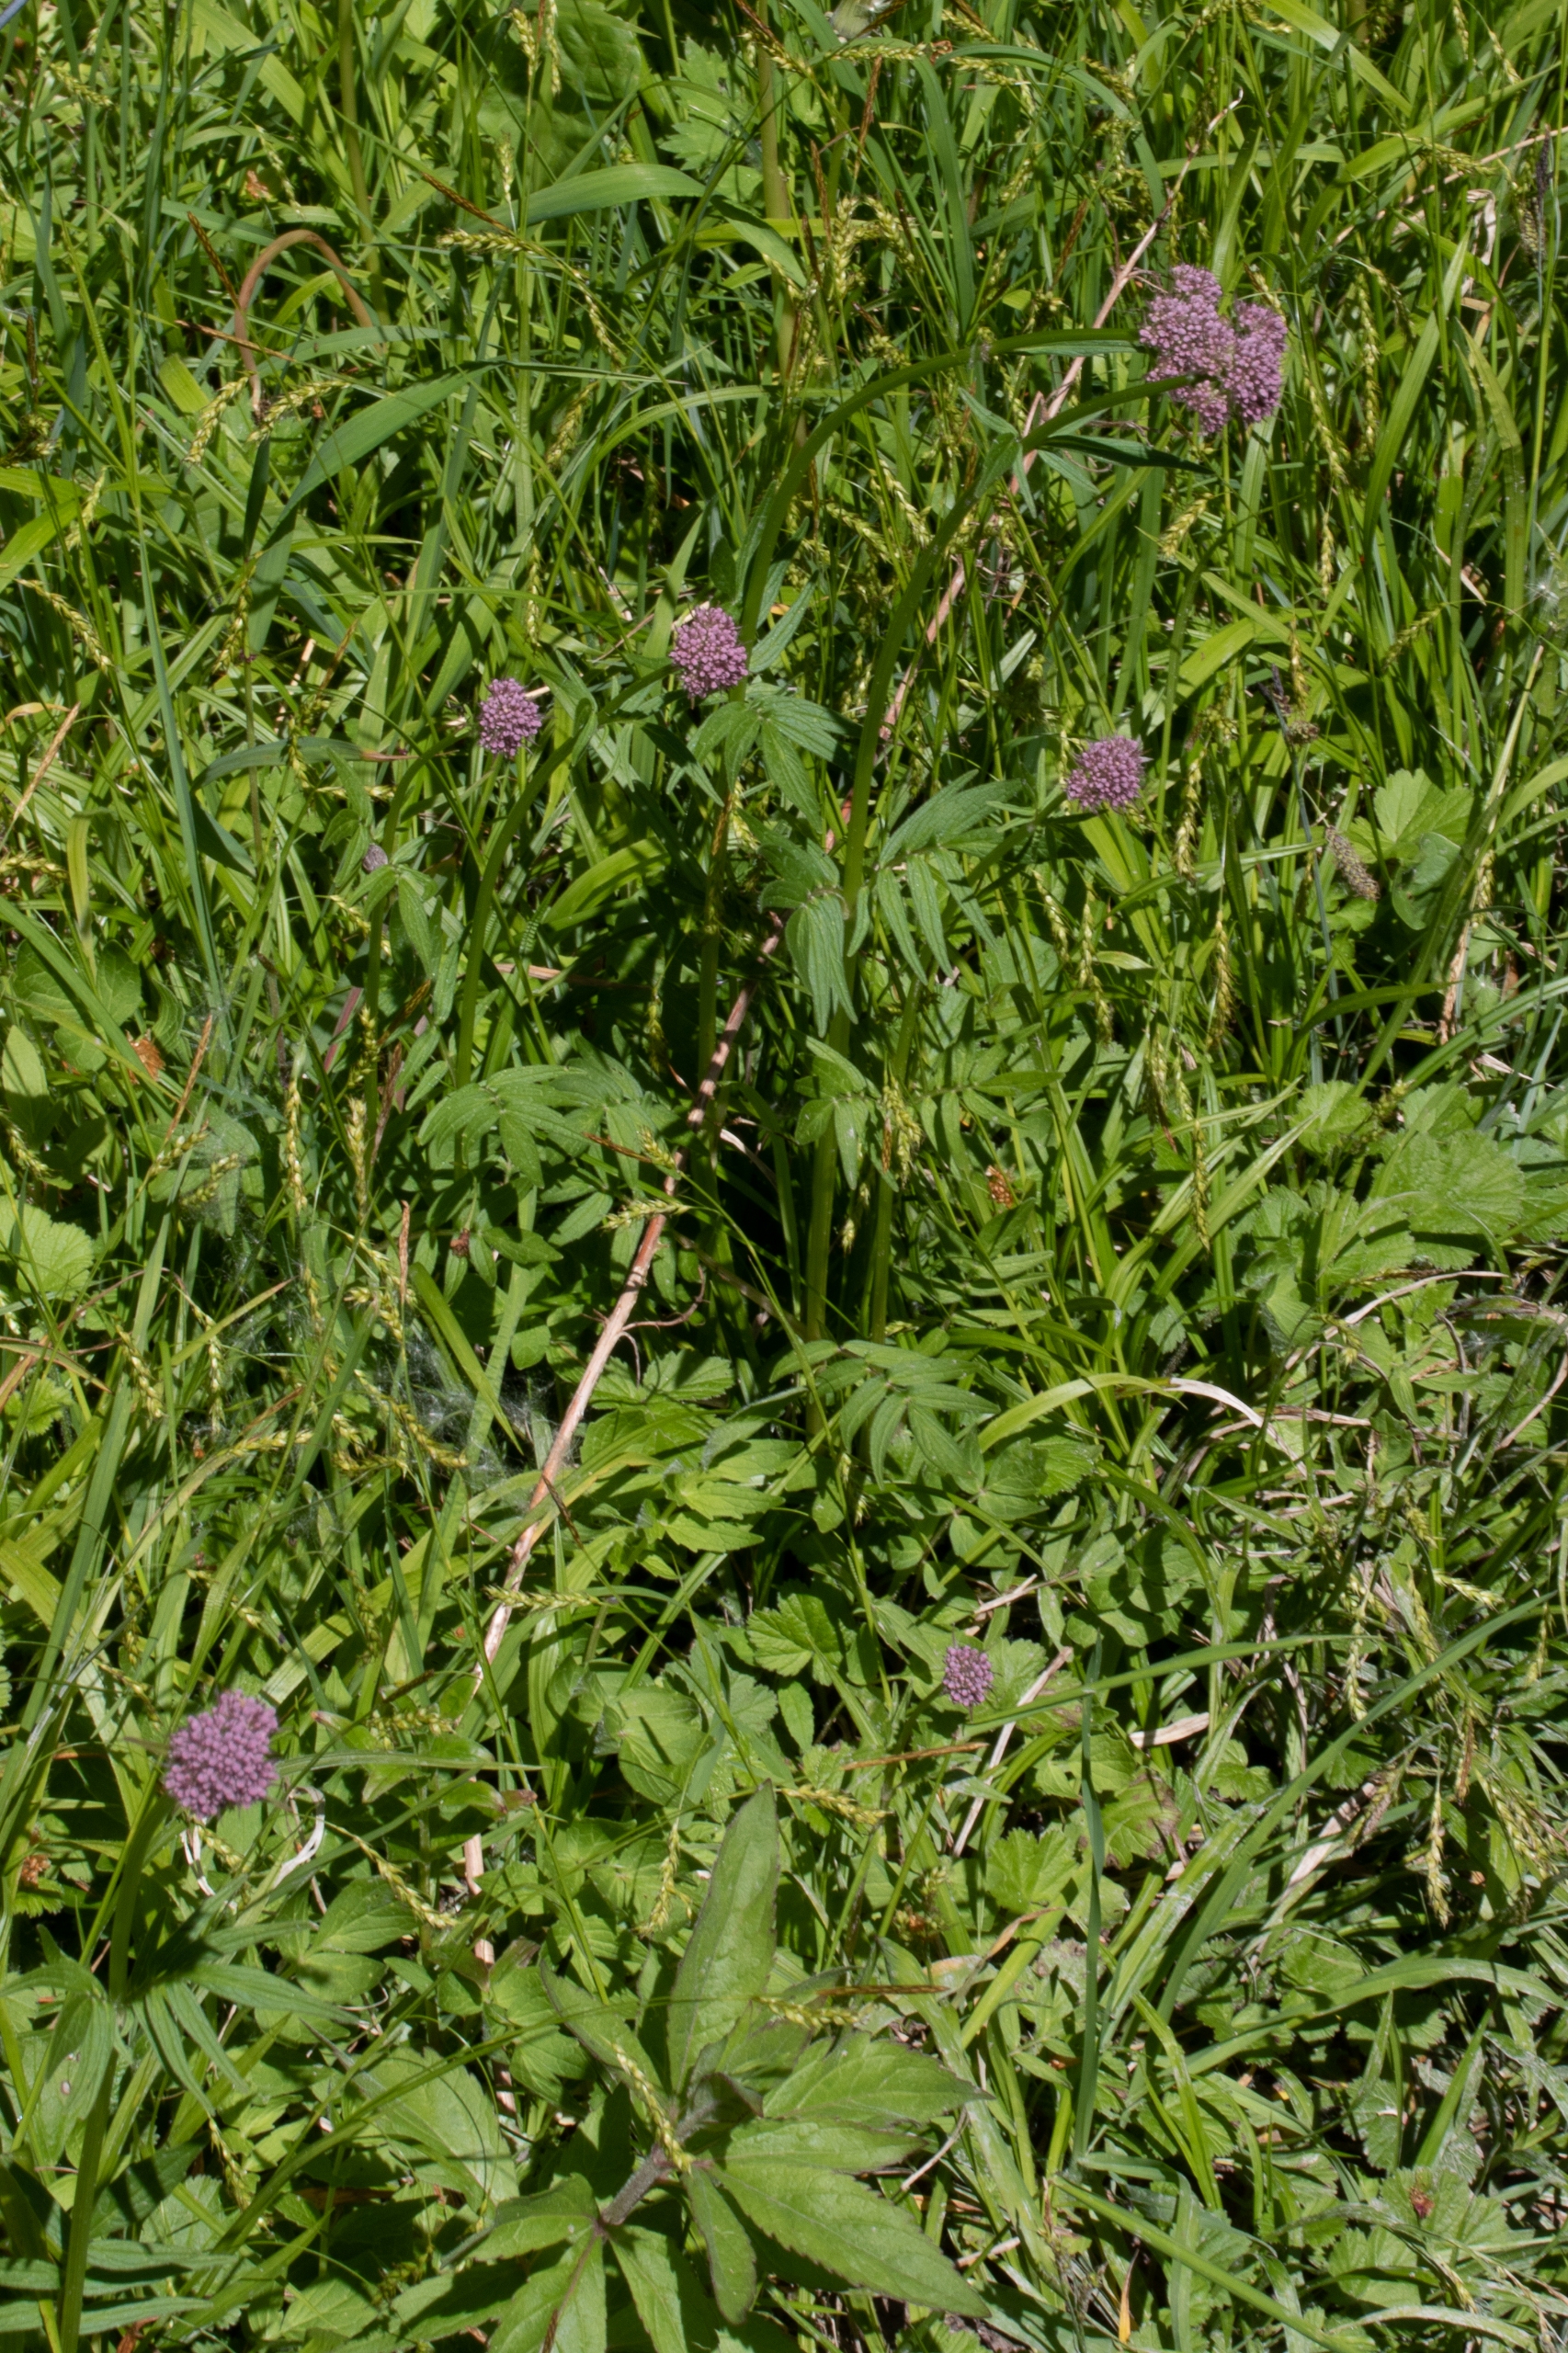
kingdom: Plantae
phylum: Tracheophyta
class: Magnoliopsida
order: Dipsacales
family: Caprifoliaceae
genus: Valeriana
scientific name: Valeriana
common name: Baldrianslægten
